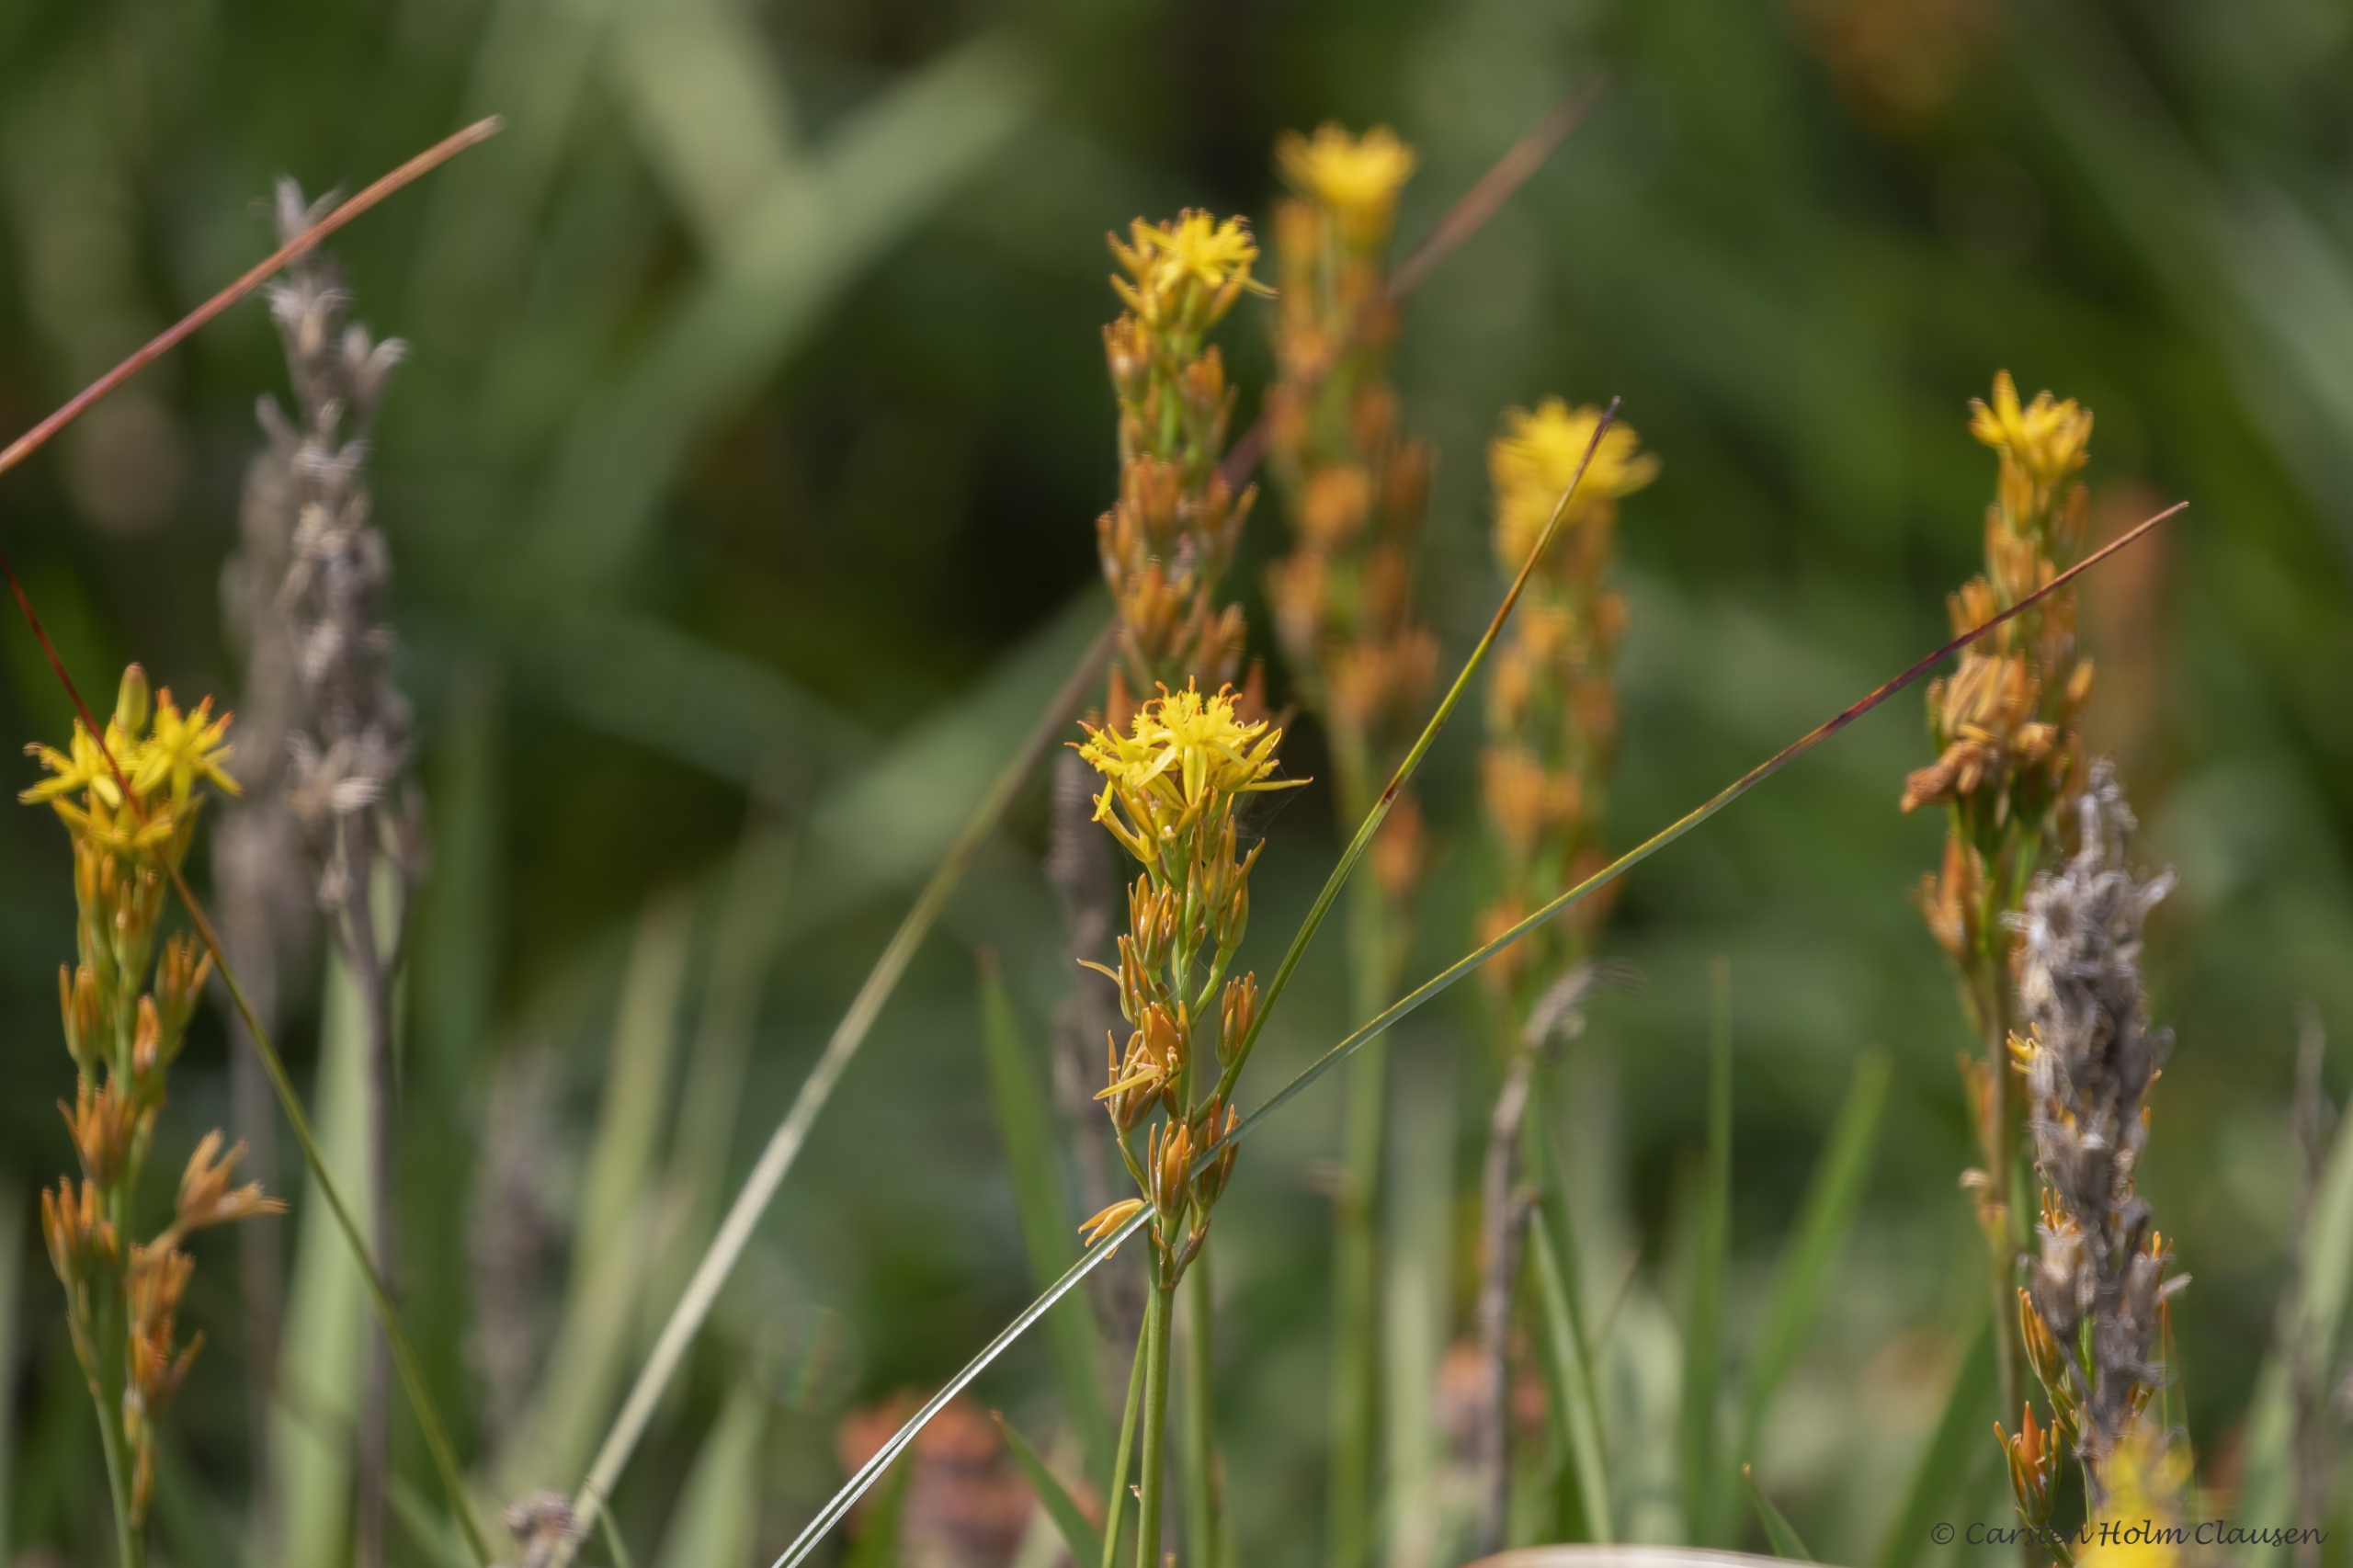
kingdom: Plantae
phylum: Tracheophyta
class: Liliopsida
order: Dioscoreales
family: Nartheciaceae
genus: Narthecium
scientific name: Narthecium ossifragum
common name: Benbræk
